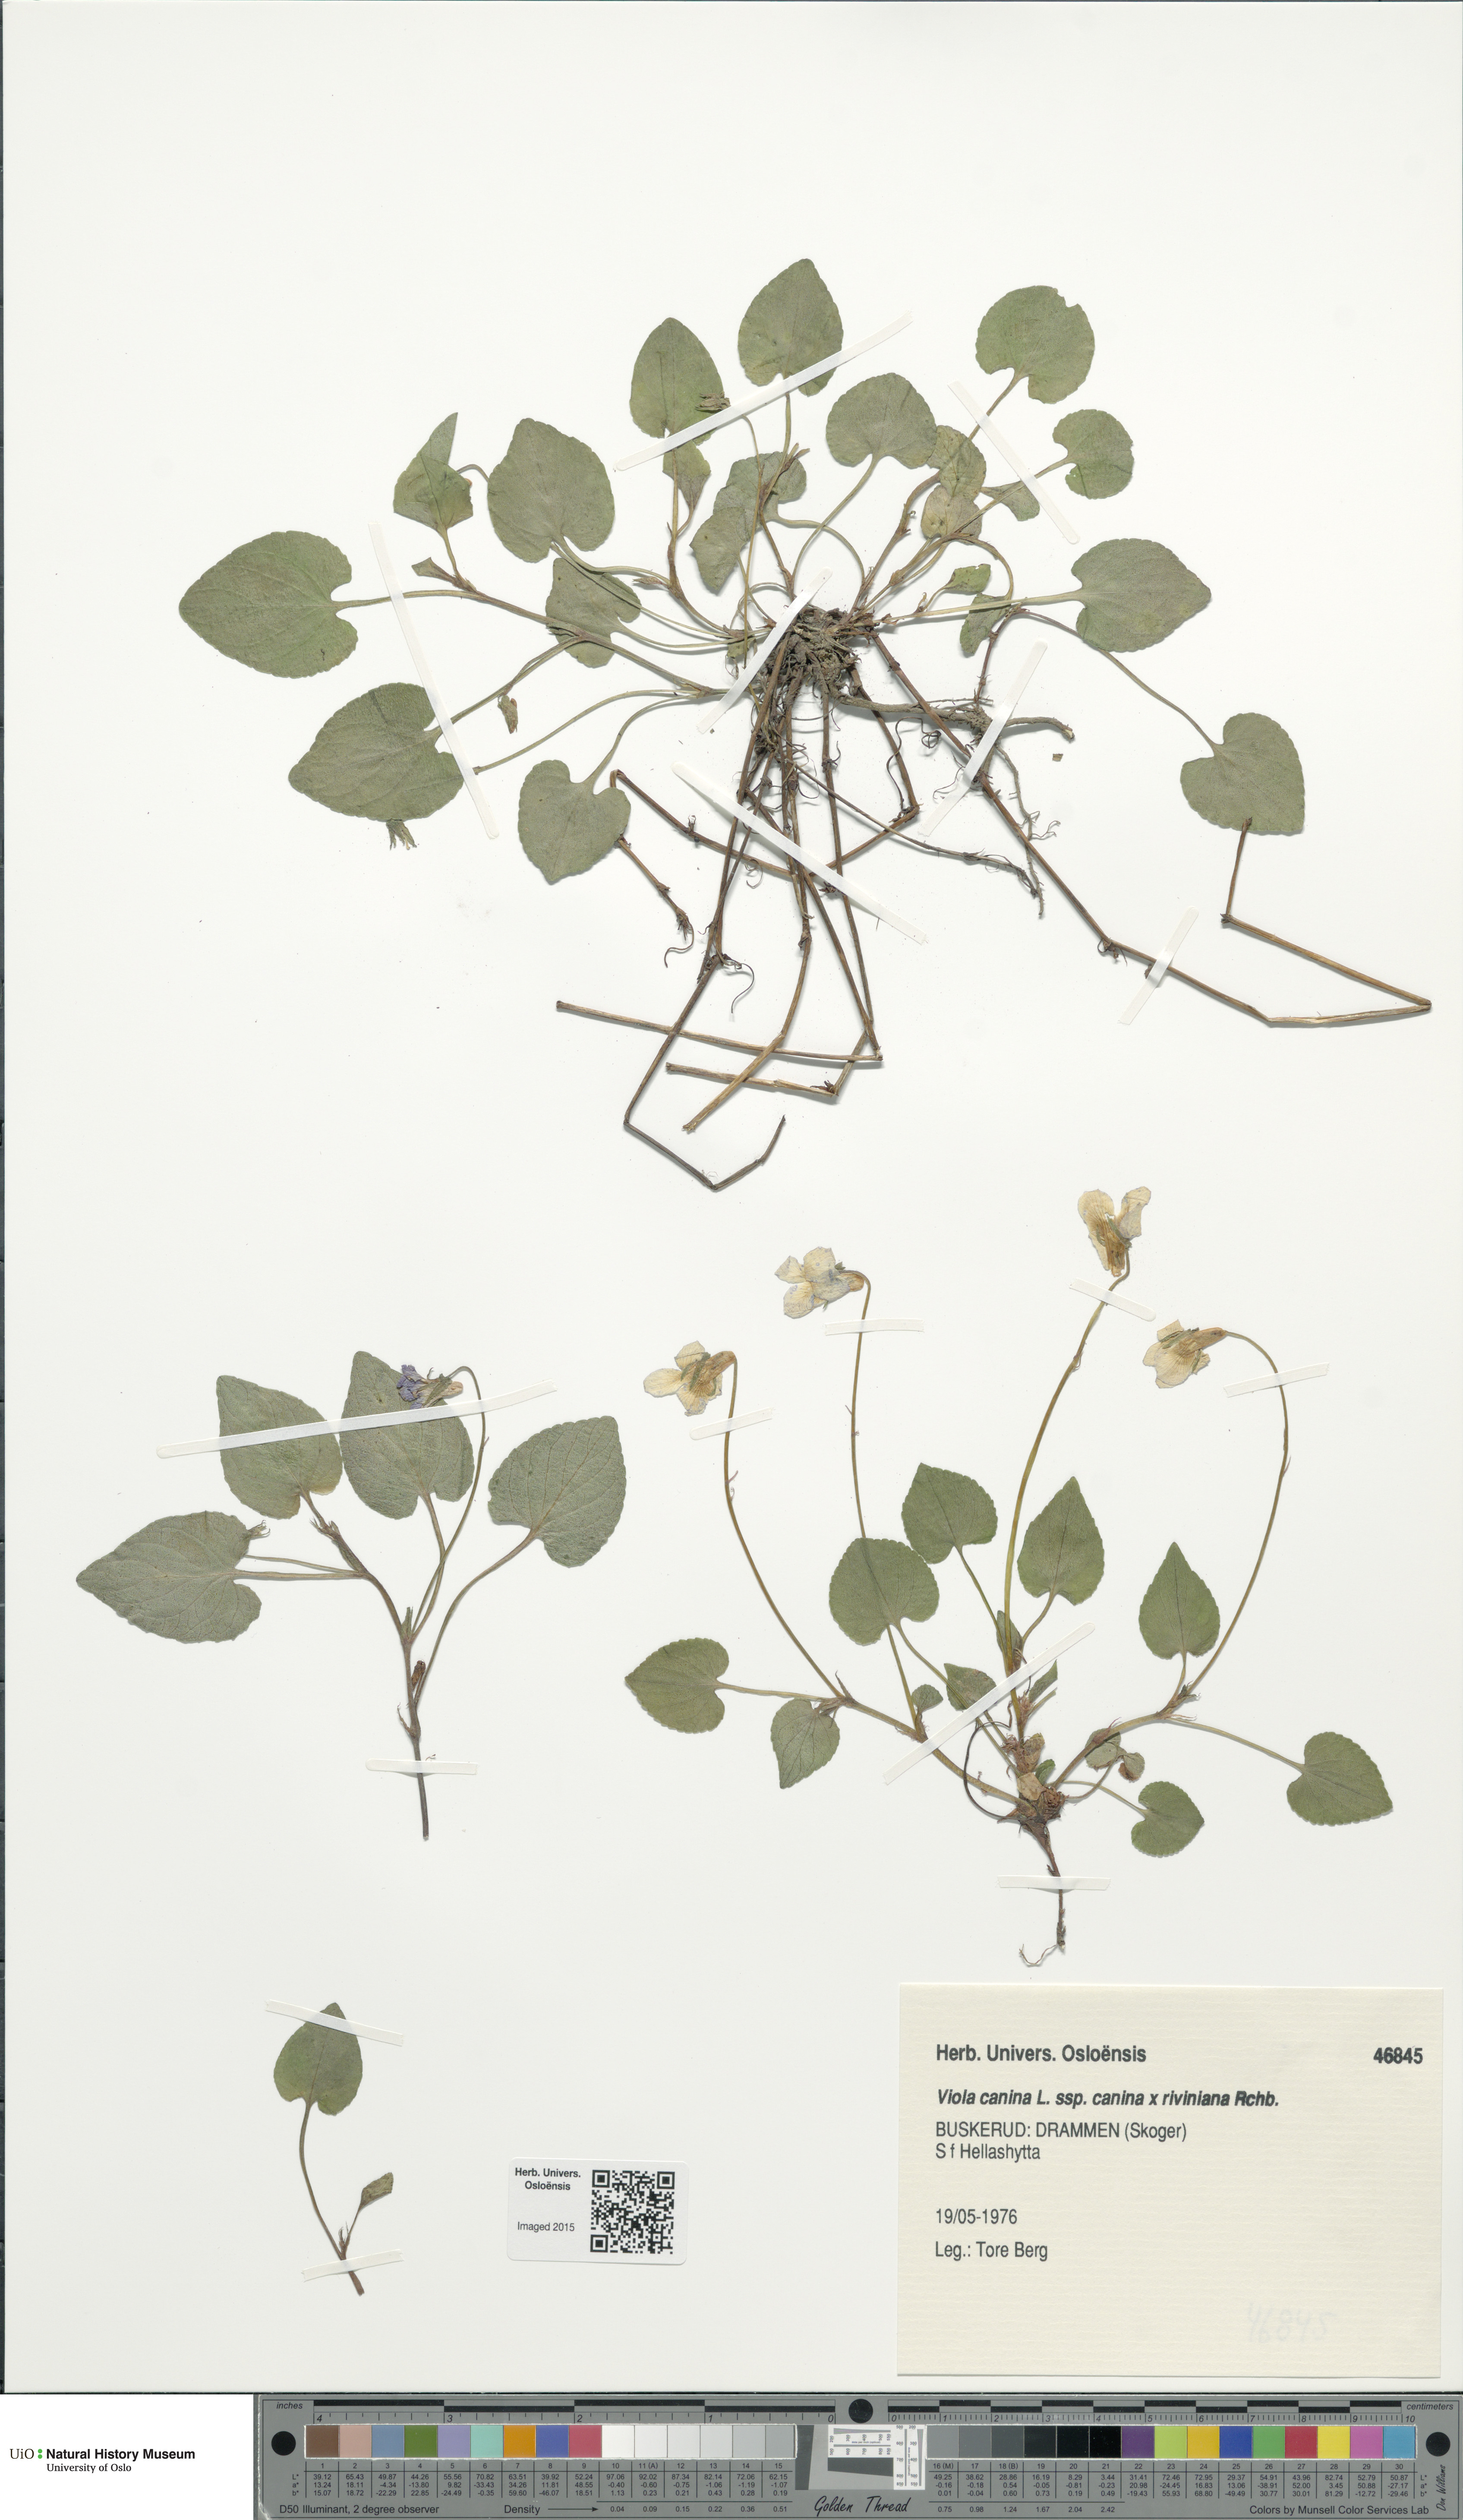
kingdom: Plantae
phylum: Tracheophyta
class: Magnoliopsida
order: Malpighiales
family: Violaceae
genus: Viola
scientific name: Viola
